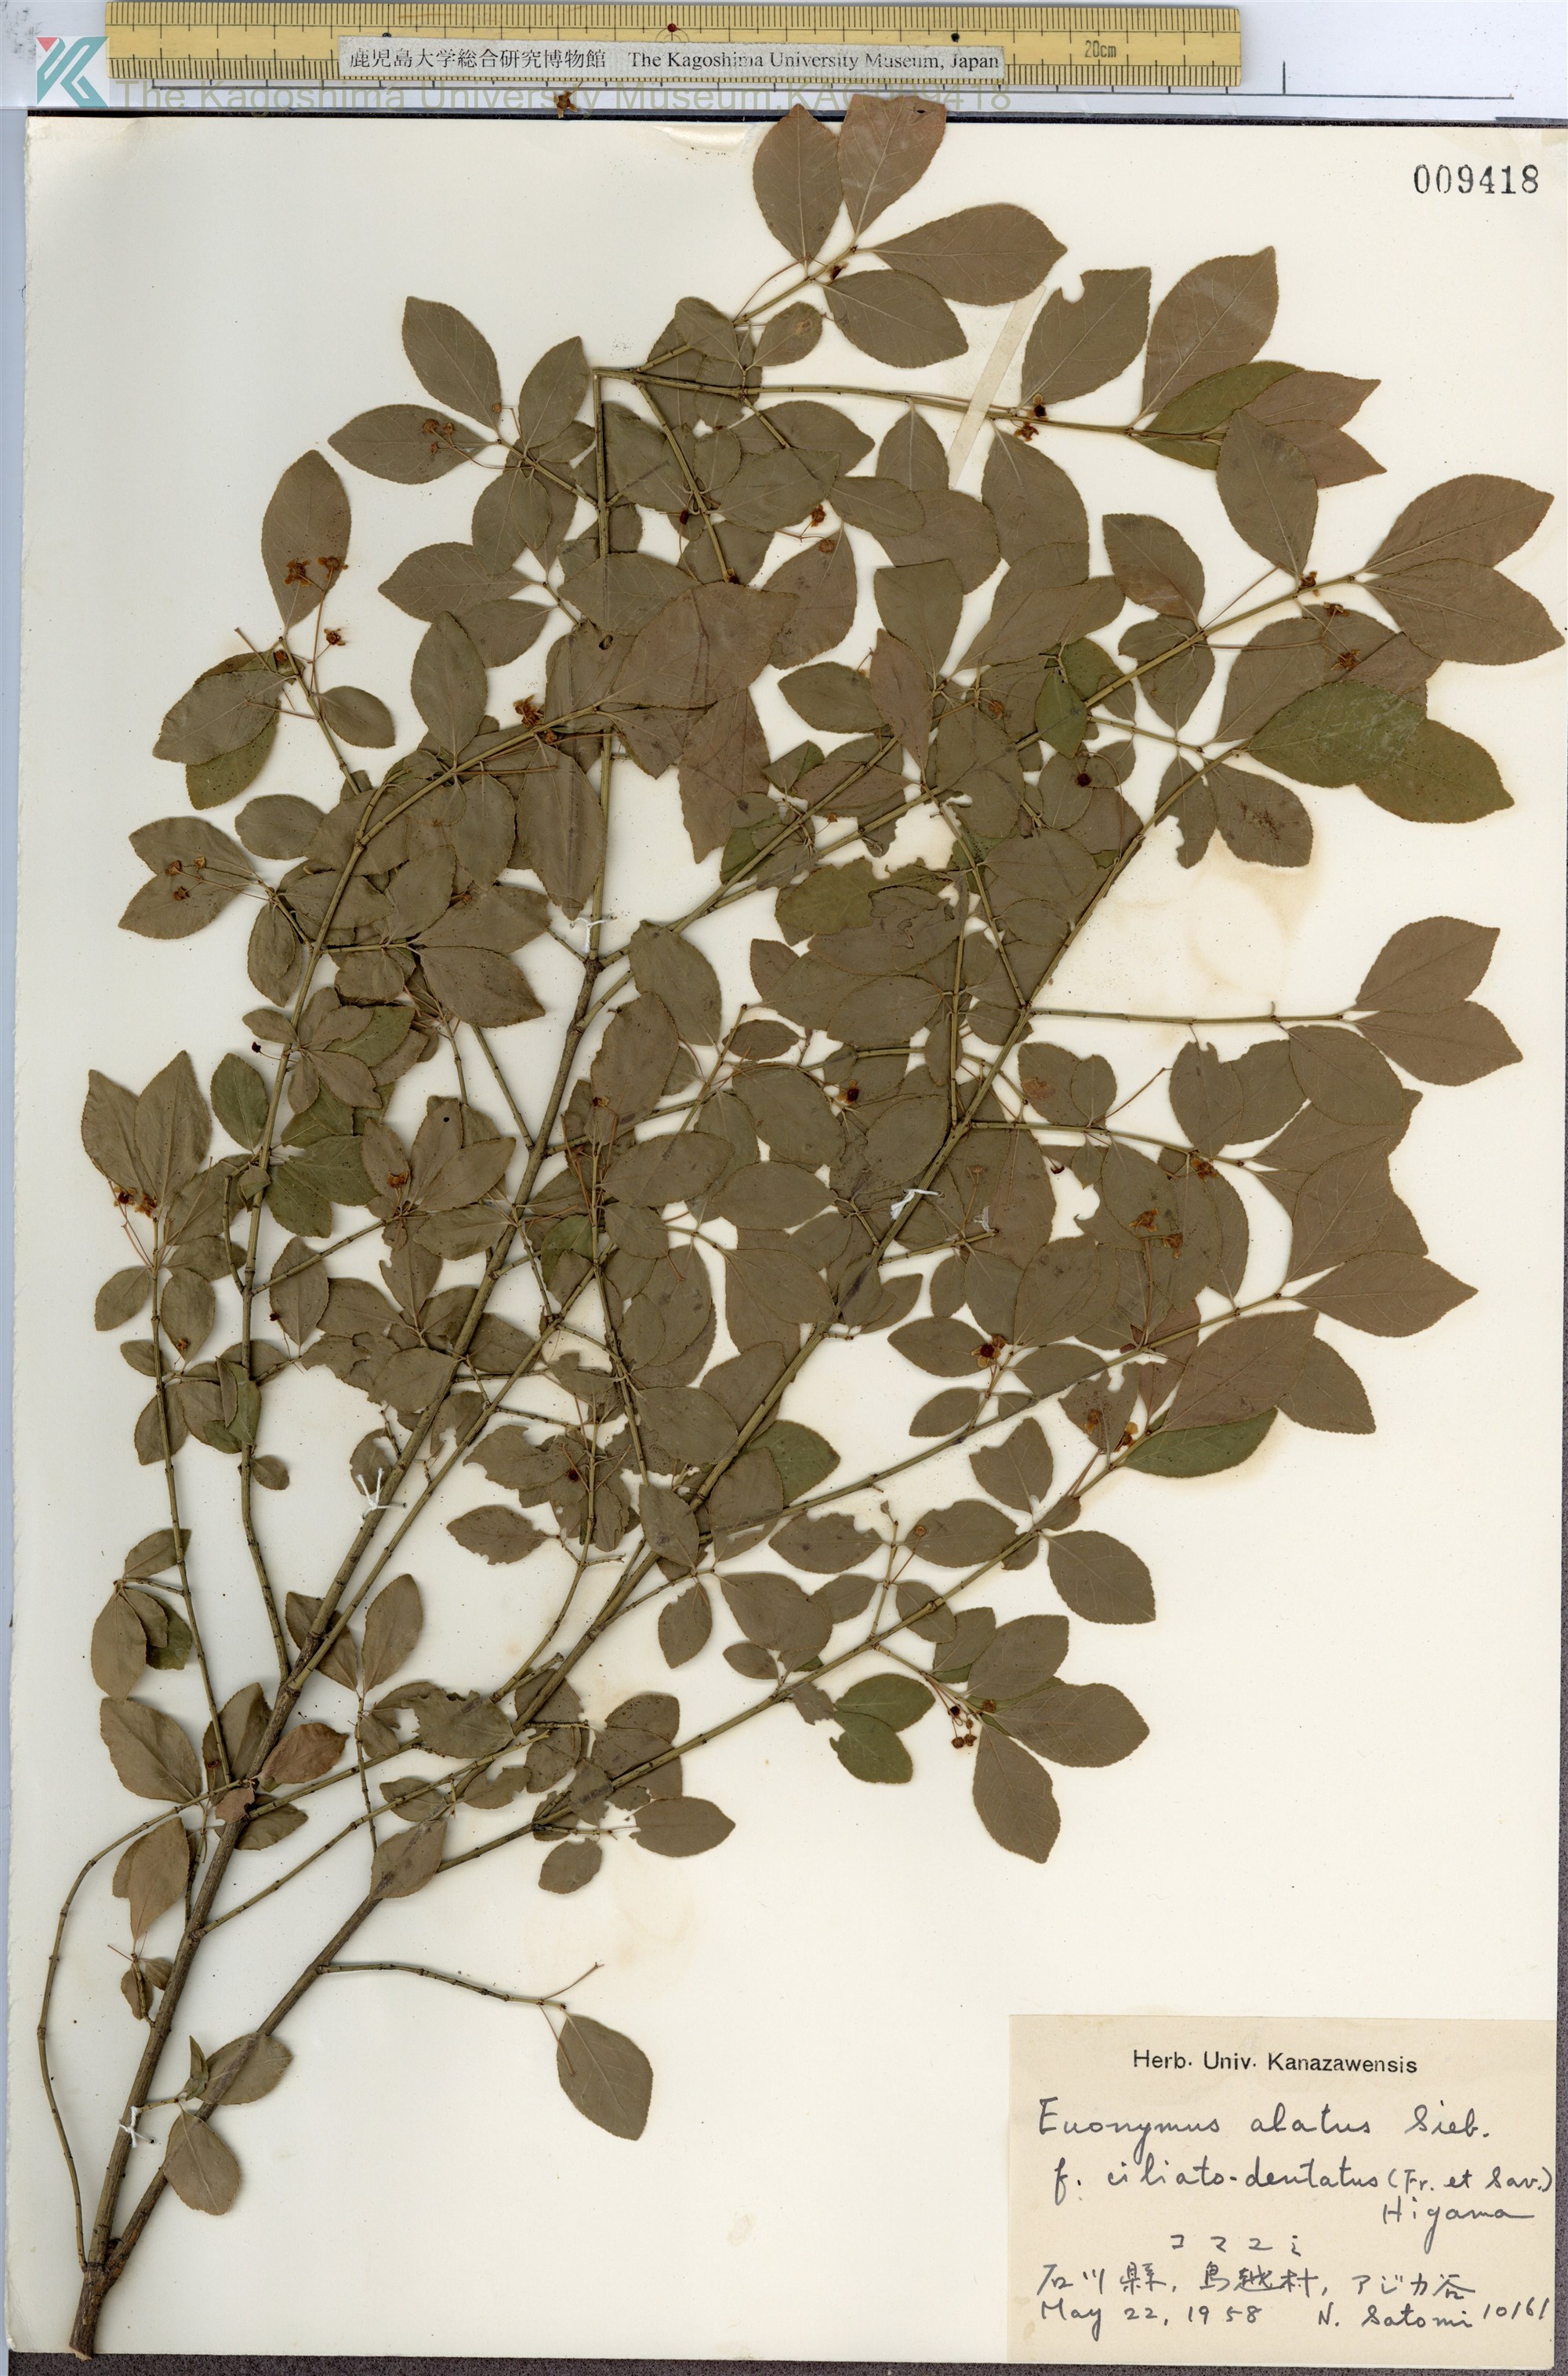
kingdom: Plantae
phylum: Tracheophyta
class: Magnoliopsida
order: Celastrales
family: Celastraceae
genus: Euonymus
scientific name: Euonymus alatus
